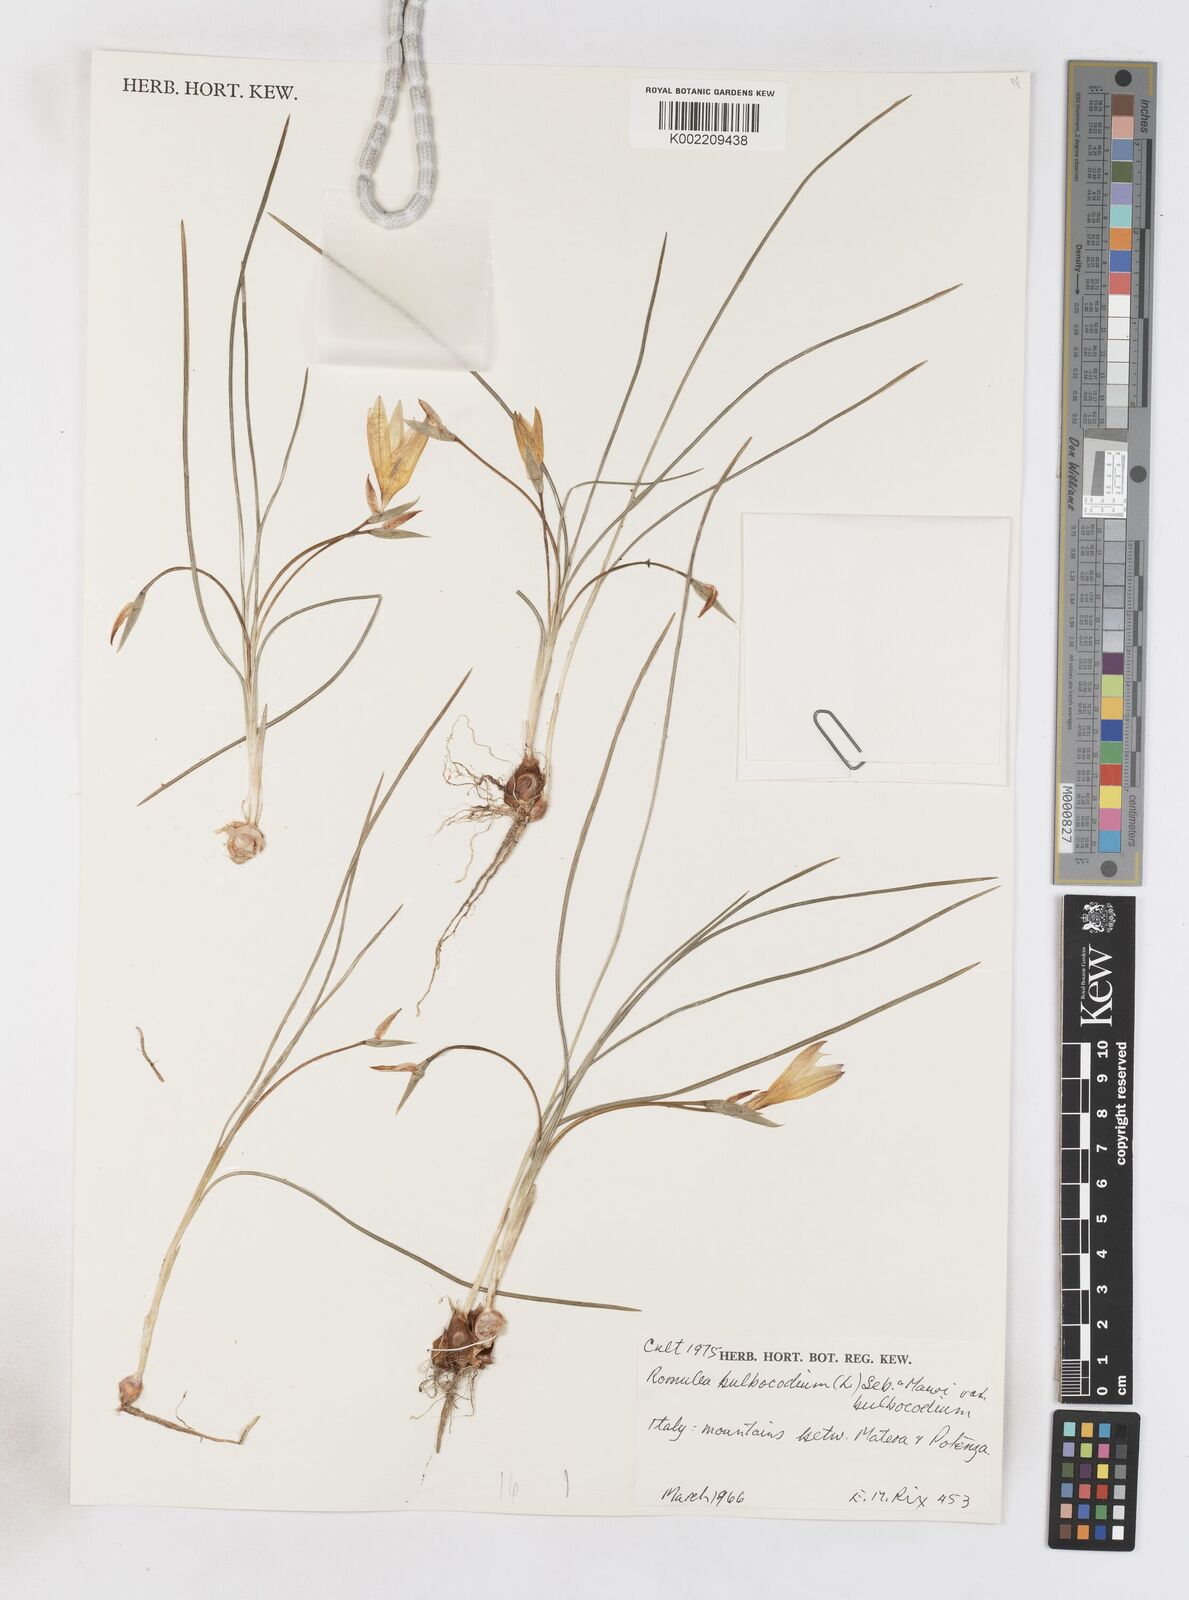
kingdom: Plantae
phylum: Tracheophyta
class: Liliopsida
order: Asparagales
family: Iridaceae
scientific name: Iridaceae
